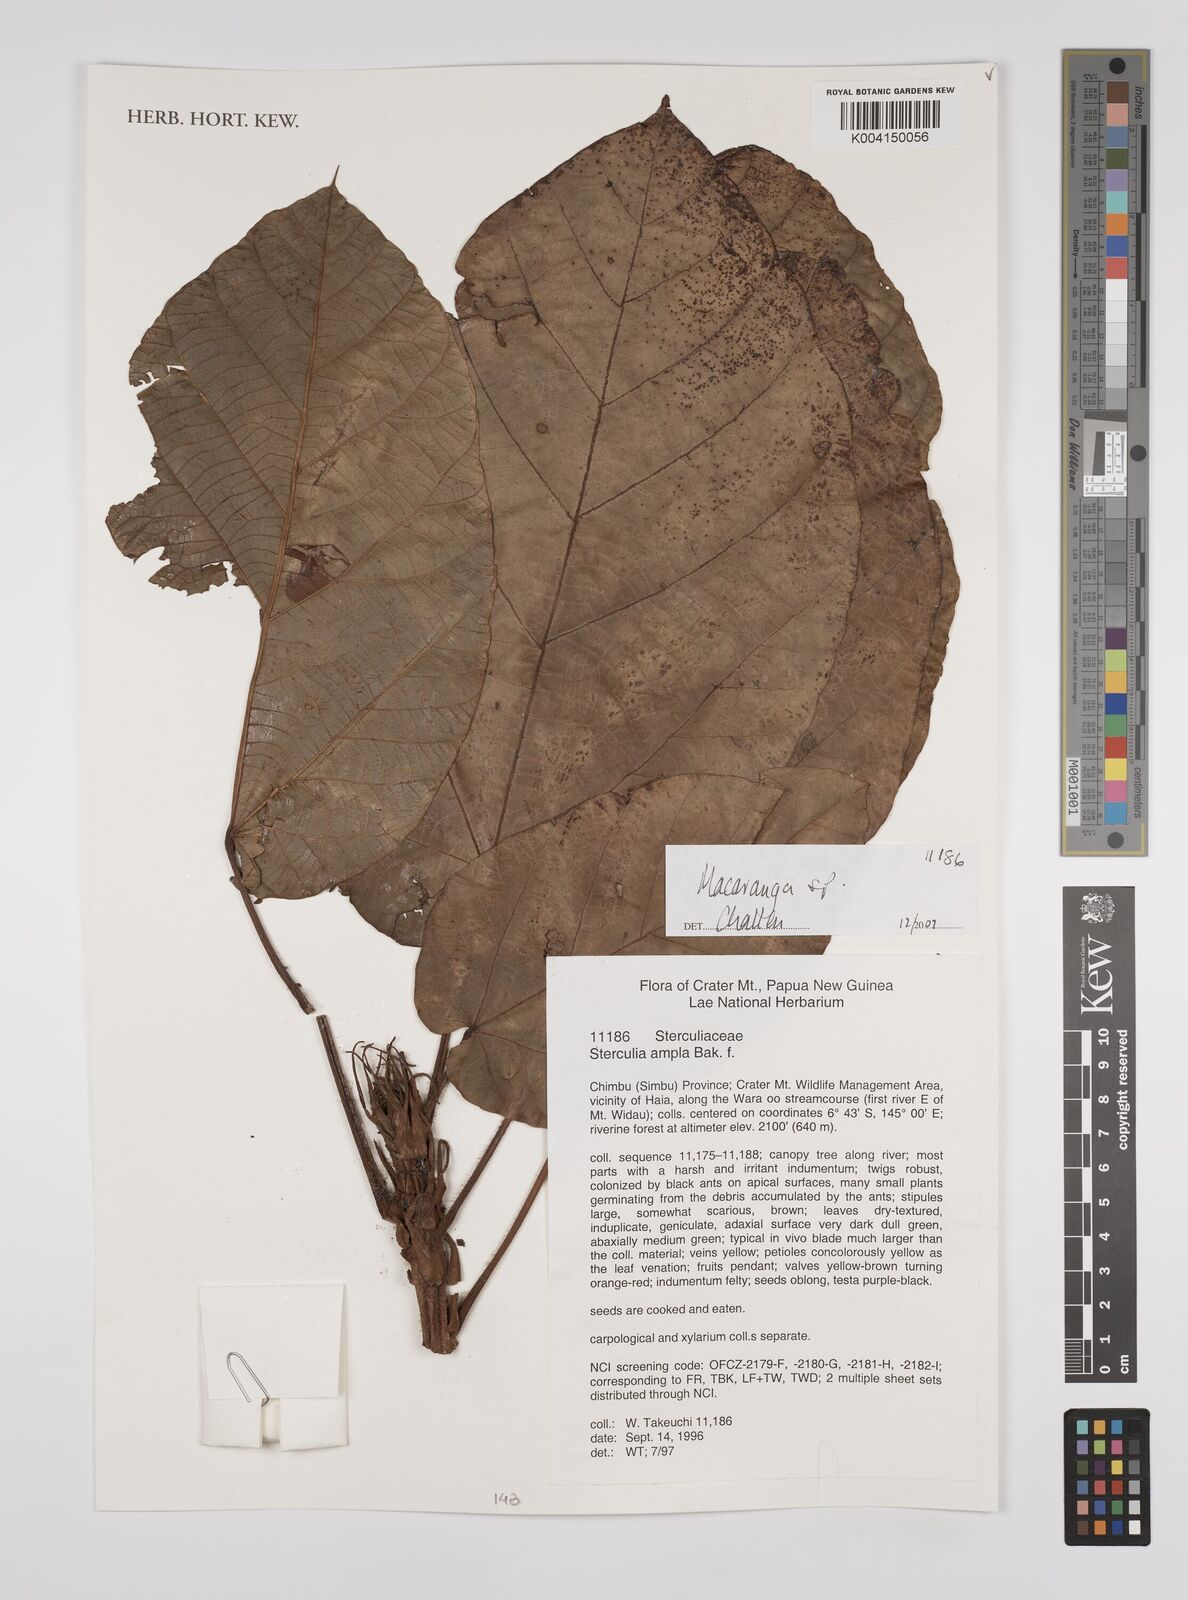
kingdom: Plantae
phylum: Tracheophyta
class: Magnoliopsida
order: Malpighiales
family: Euphorbiaceae
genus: Macaranga
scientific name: Macaranga
